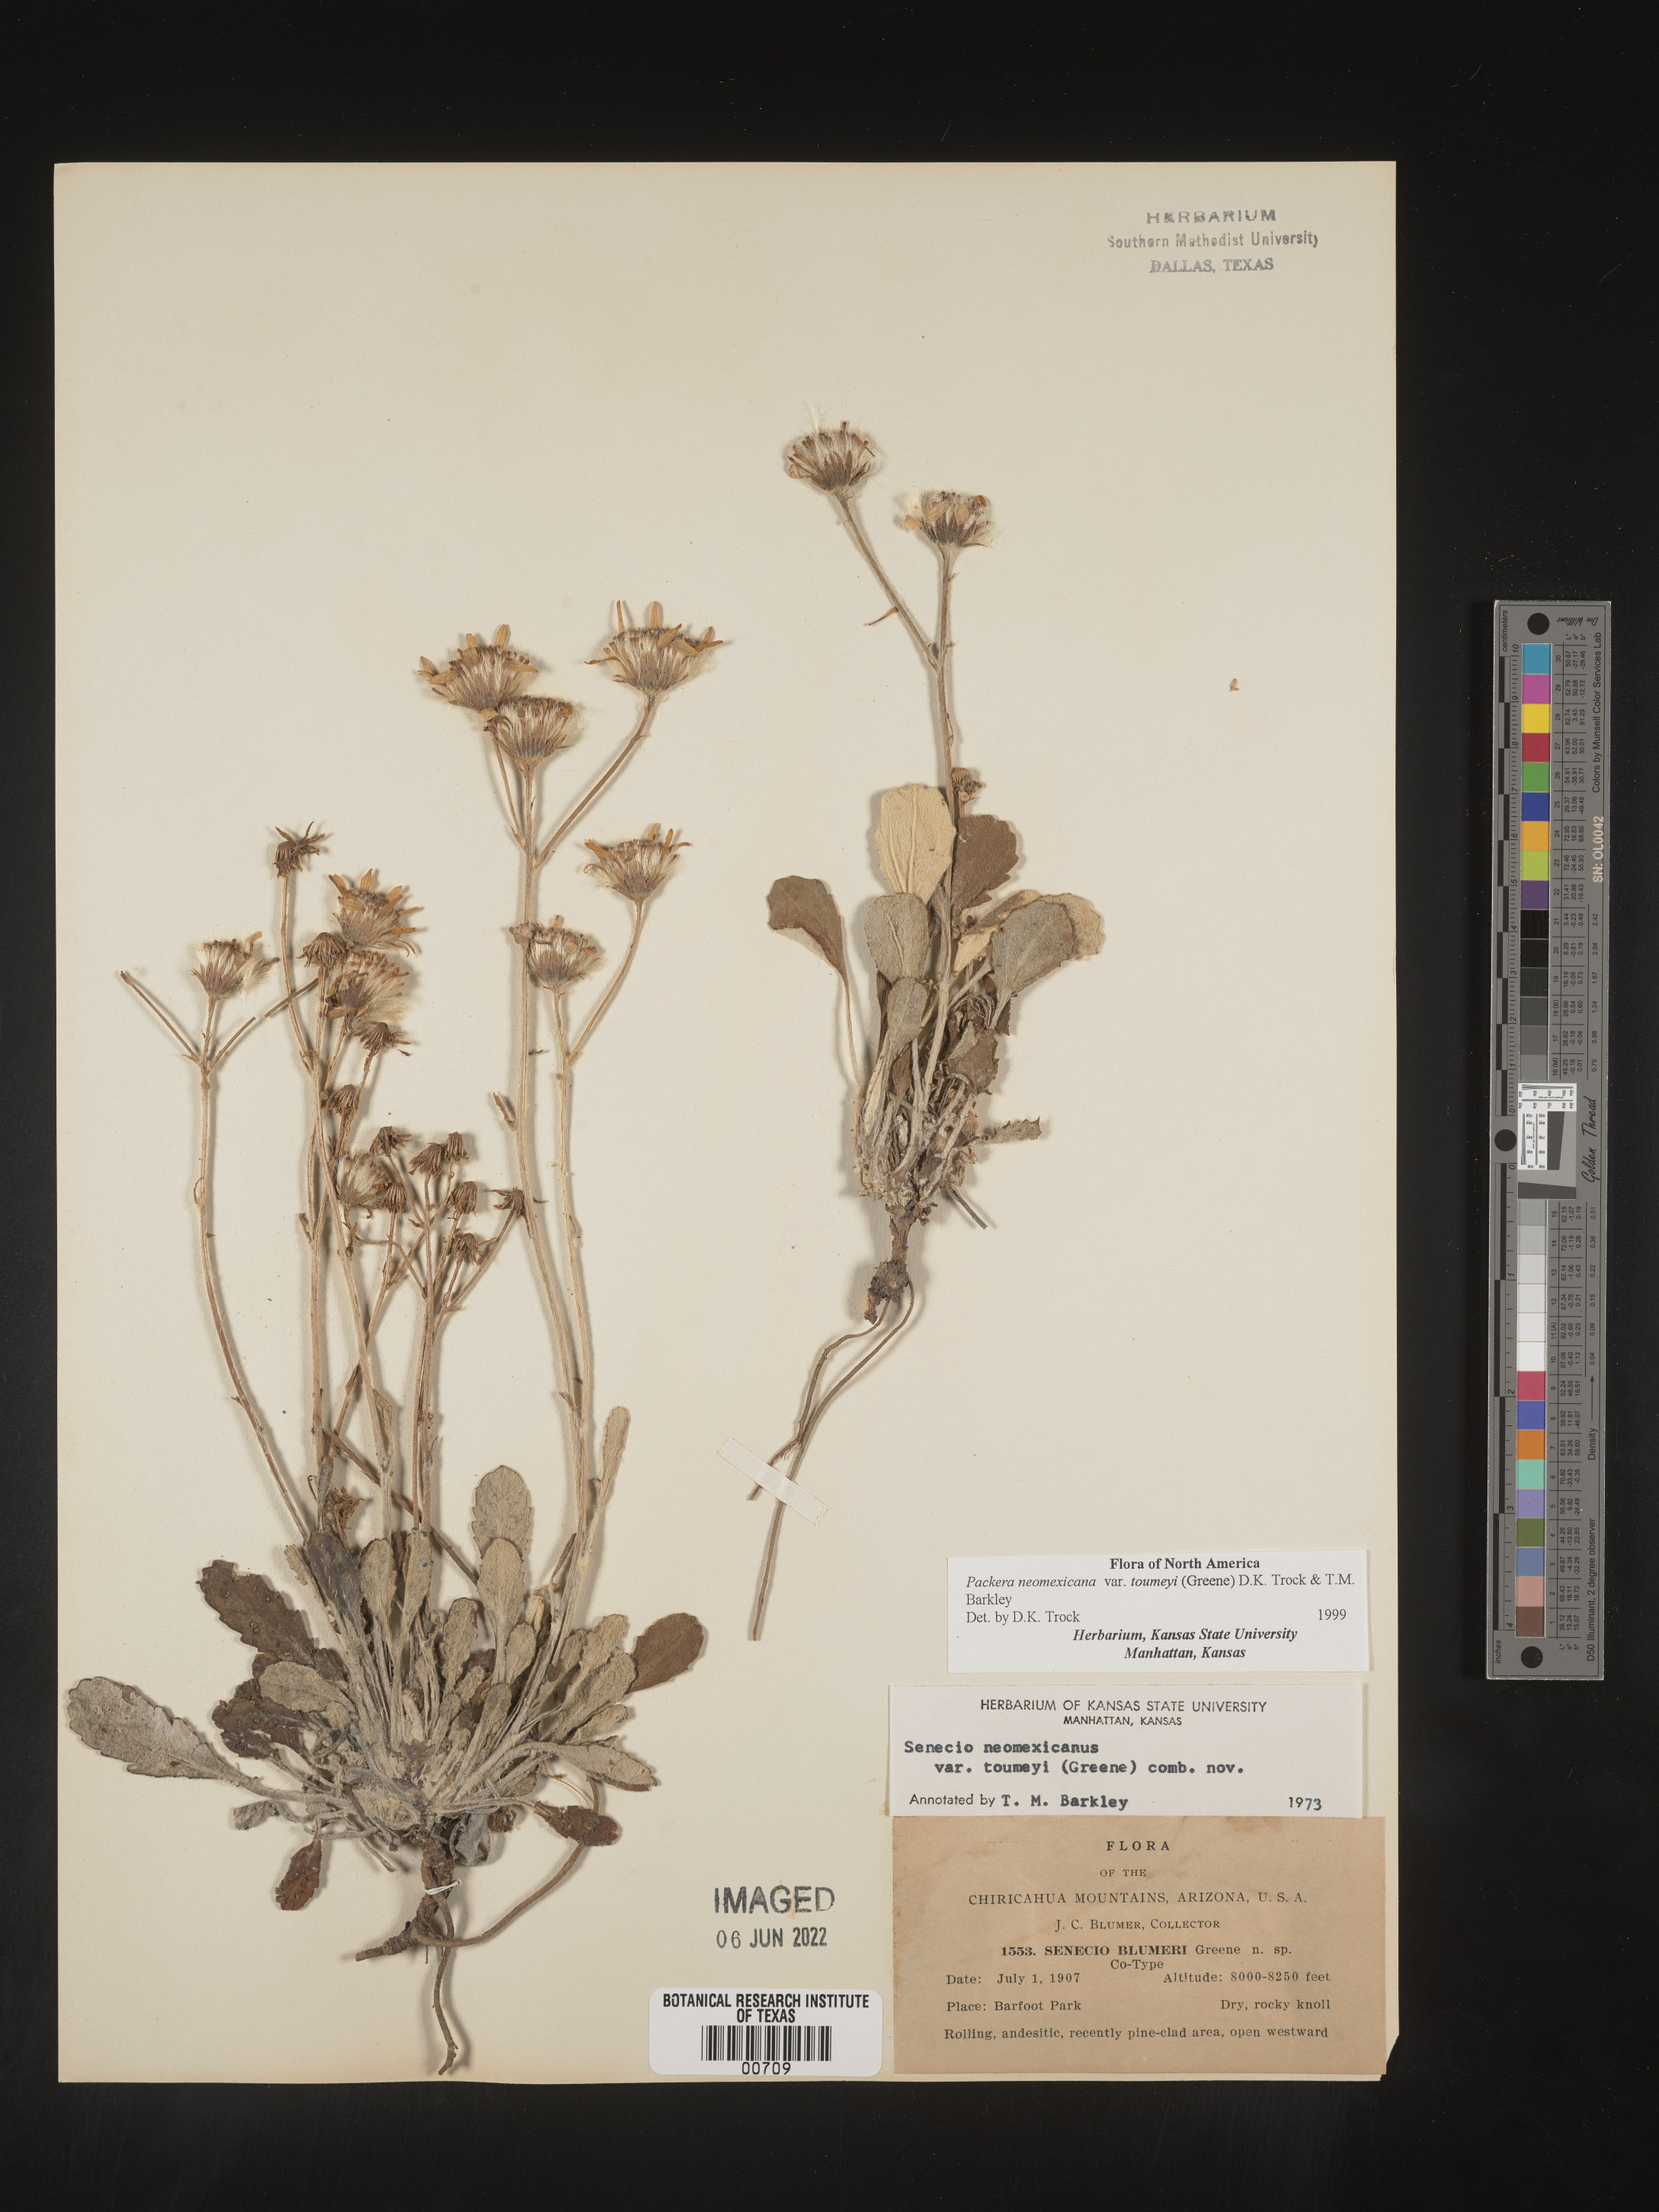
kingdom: Plantae
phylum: Tracheophyta
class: Magnoliopsida
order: Asterales
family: Asteraceae
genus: Packera
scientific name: Packera neomexicana
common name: New mexico butterweed
